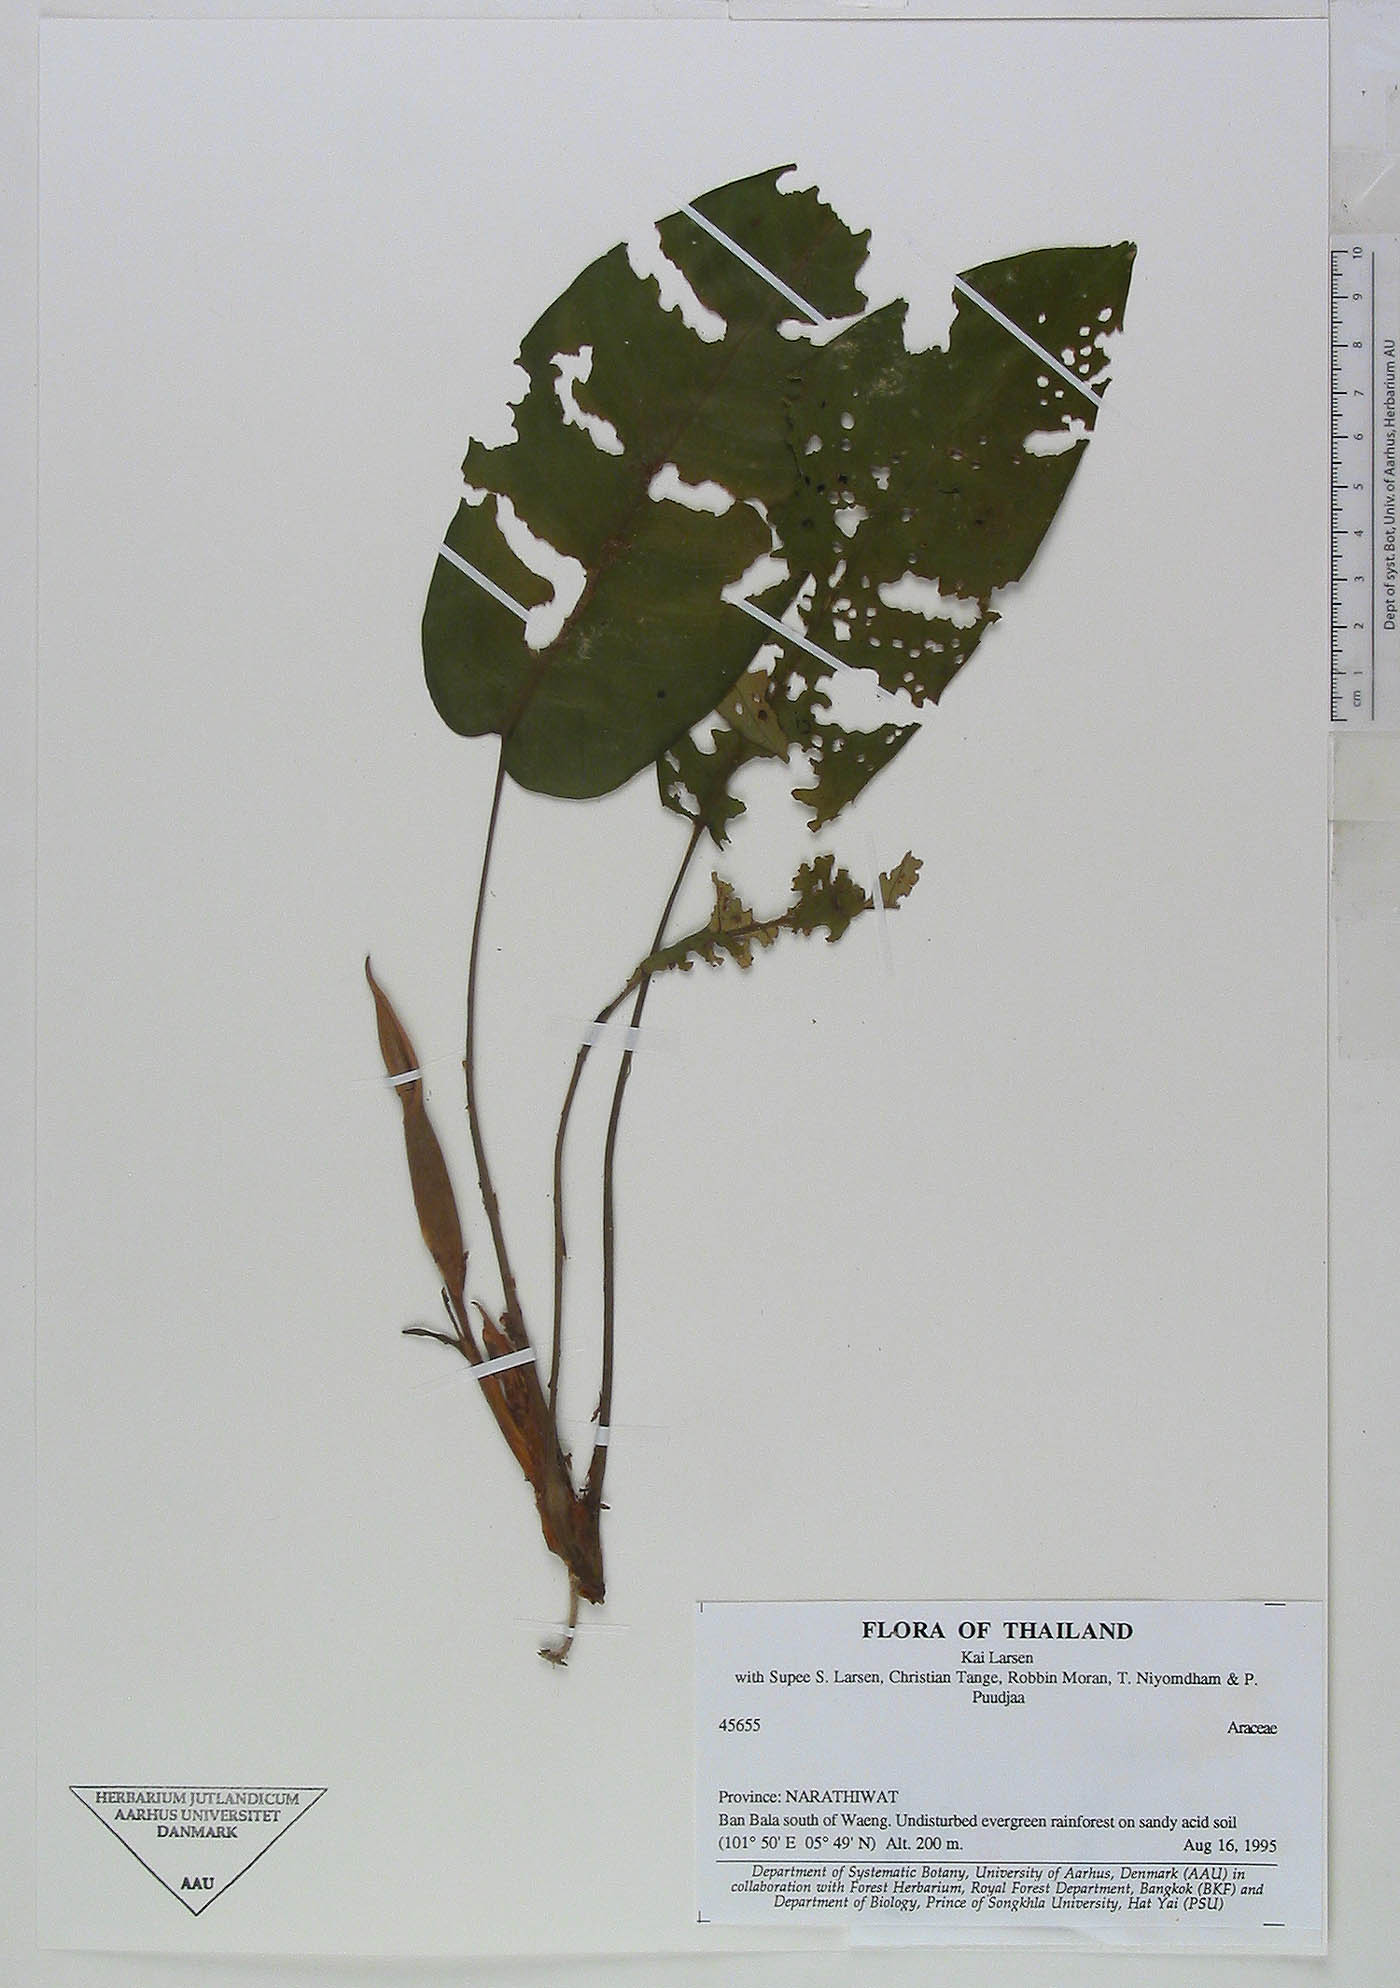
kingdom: Plantae
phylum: Tracheophyta
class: Liliopsida
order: Alismatales
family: Araceae
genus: Apoballis
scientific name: Apoballis mutata
